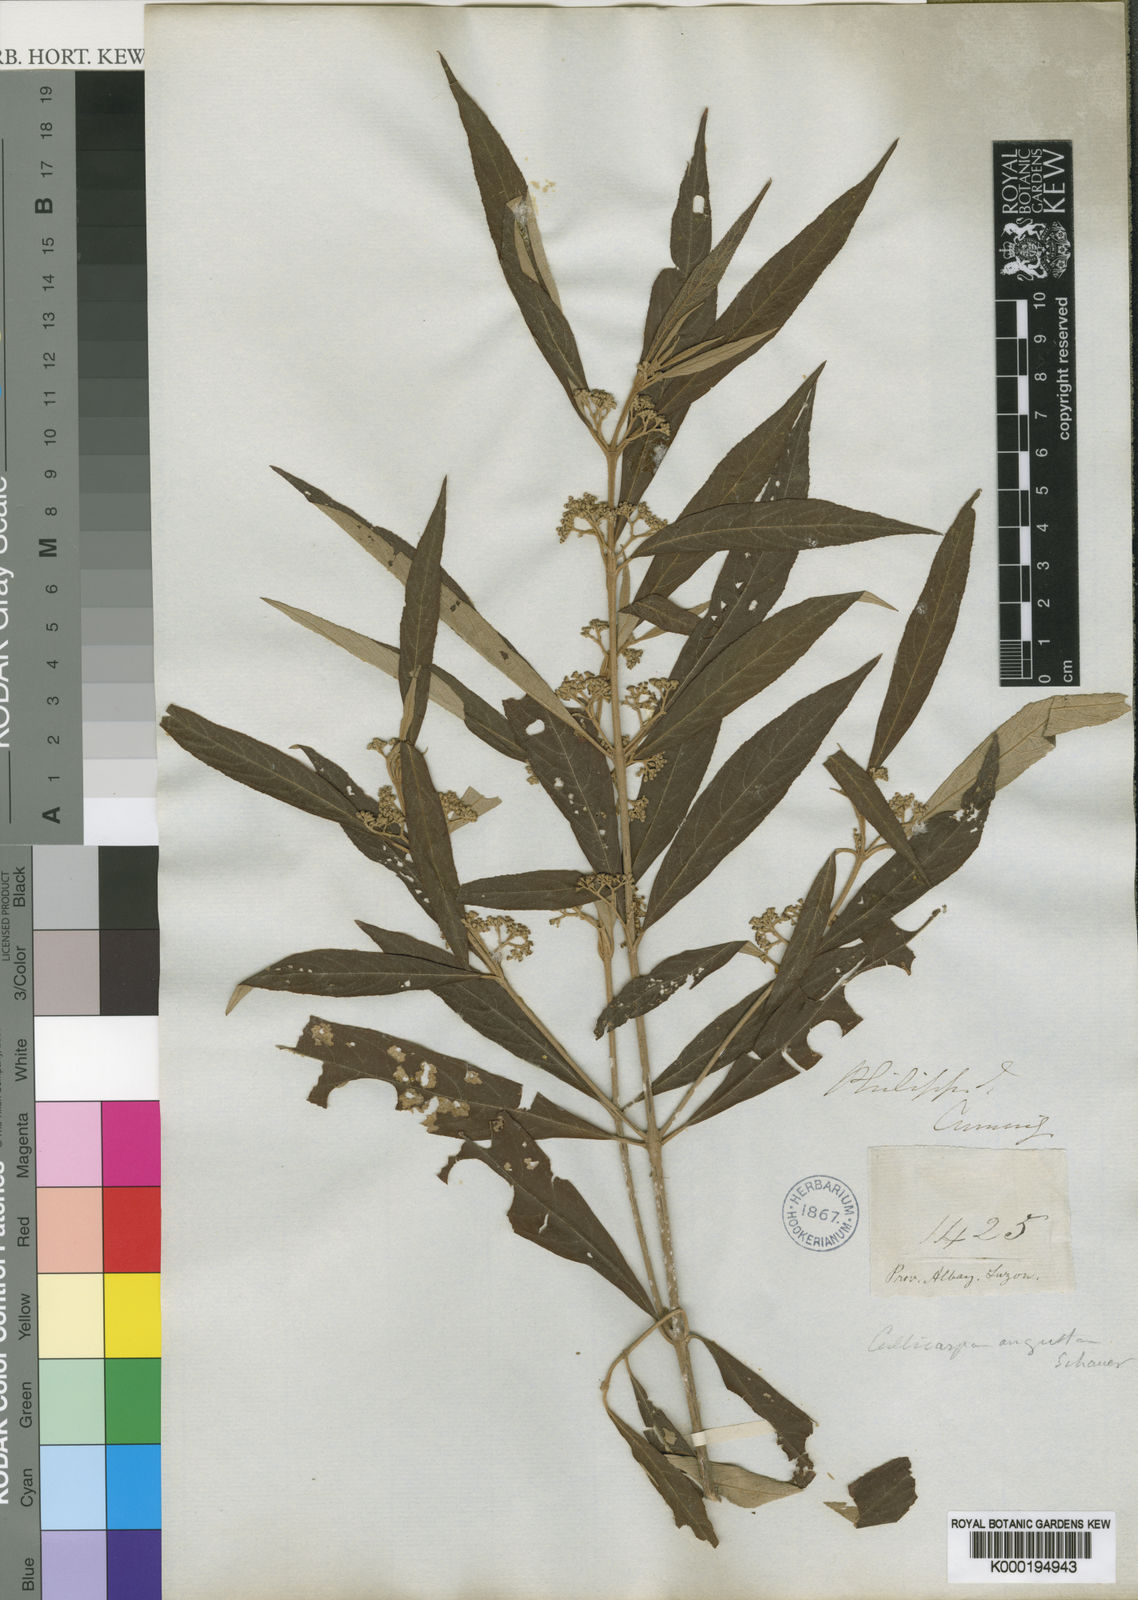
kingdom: Plantae
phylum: Tracheophyta
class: Magnoliopsida
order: Lamiales
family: Lamiaceae
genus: Callicarpa
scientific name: Callicarpa angusta
